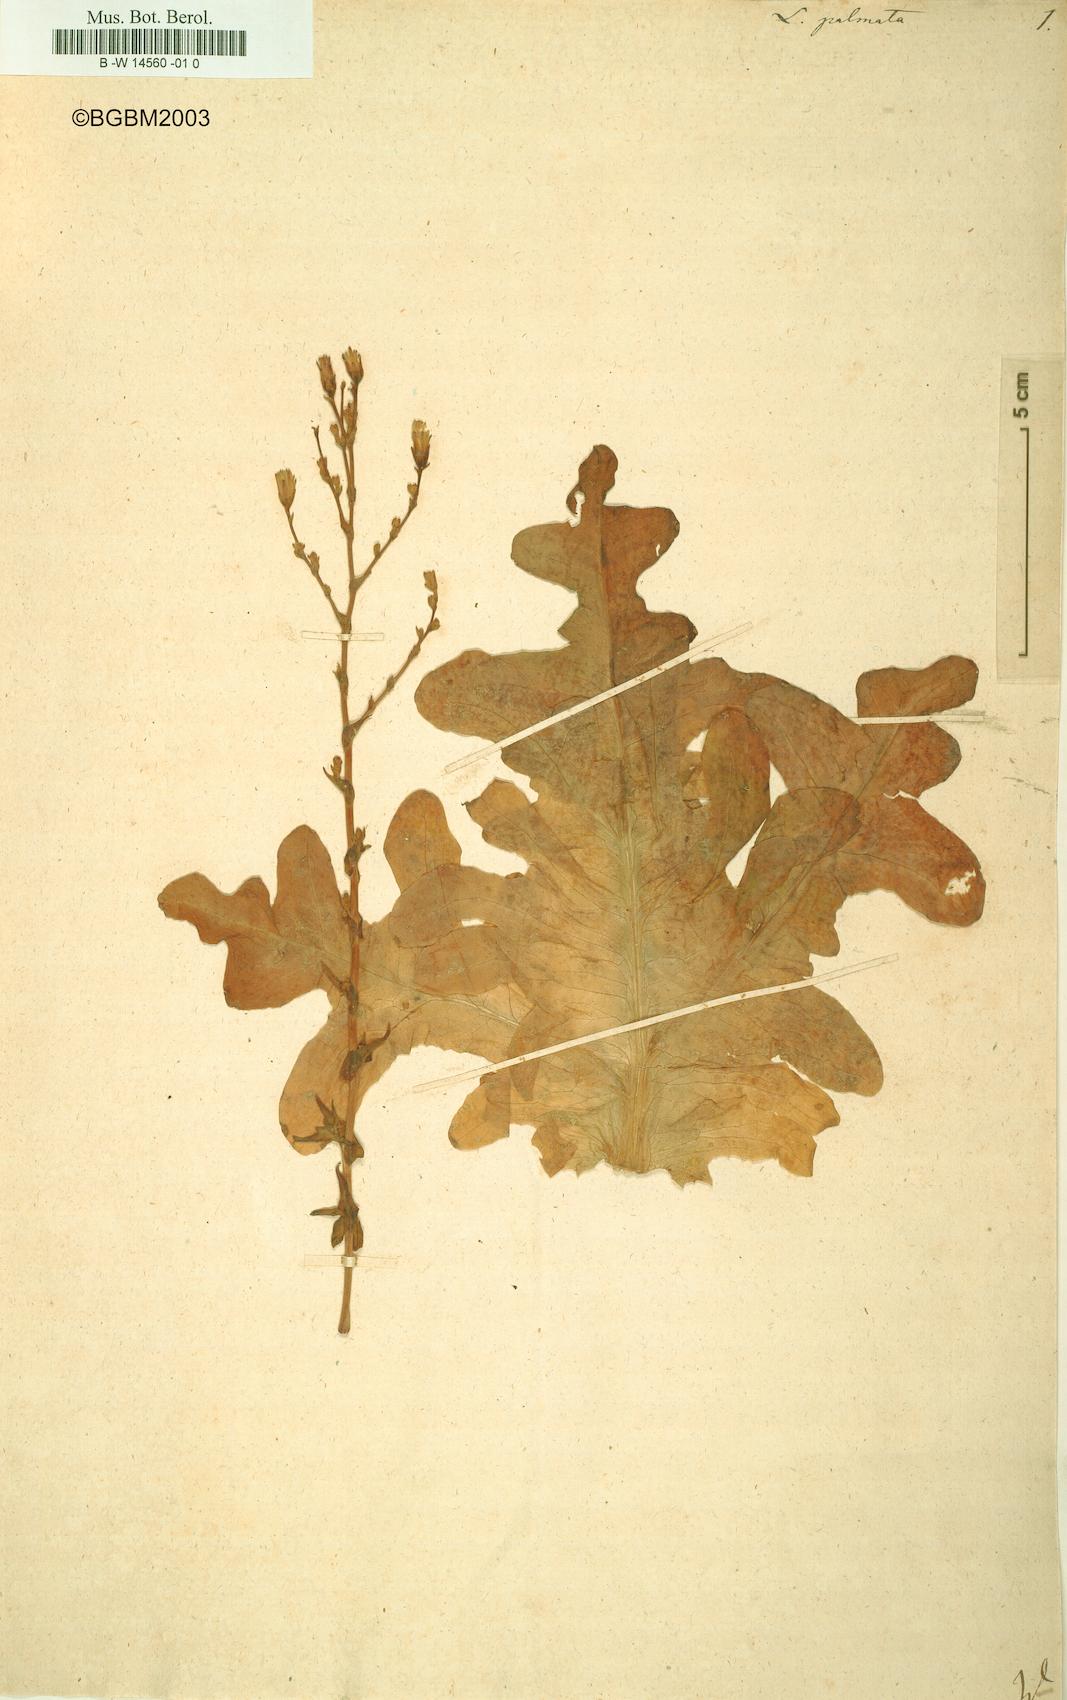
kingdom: Plantae
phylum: Tracheophyta
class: Magnoliopsida
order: Asterales
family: Asteraceae
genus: Lactuca
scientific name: Lactuca sativa
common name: Garden lettuce
